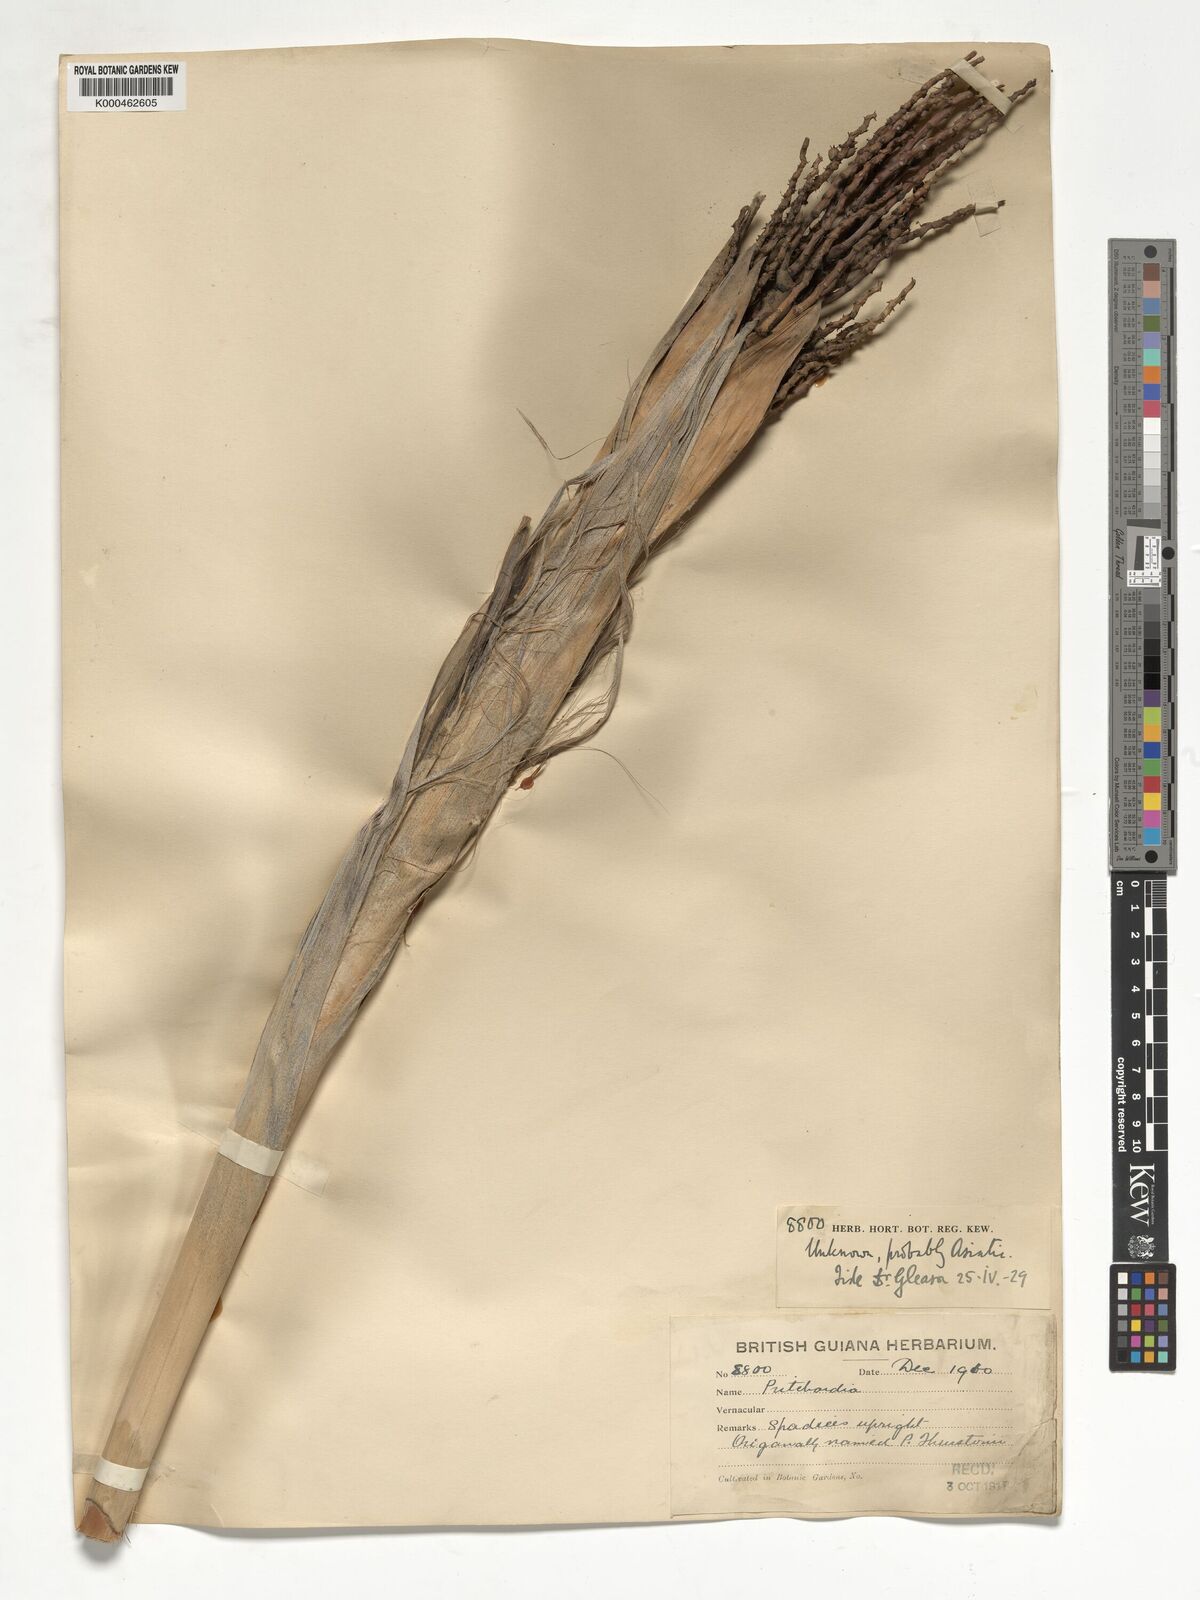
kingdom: Plantae
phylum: Tracheophyta
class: Liliopsida
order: Arecales
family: Arecaceae
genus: Pritchardia
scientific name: Pritchardia
